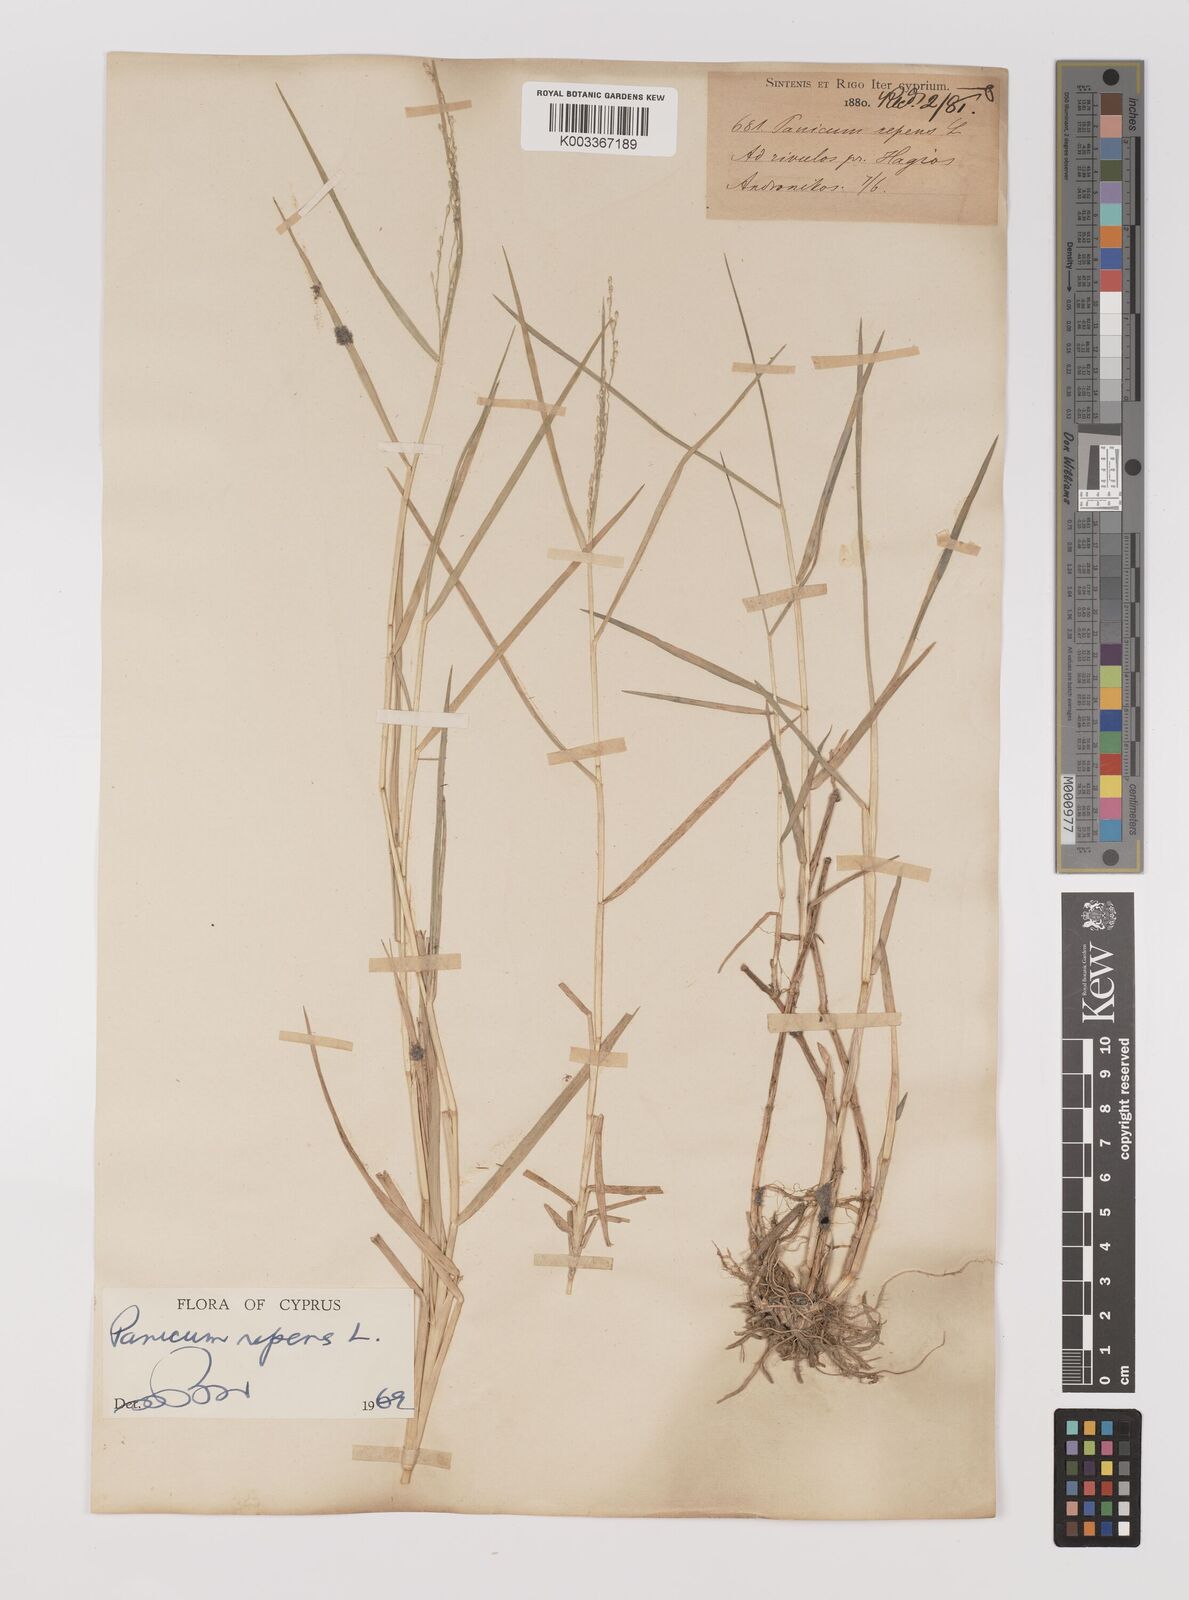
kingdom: Plantae
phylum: Tracheophyta
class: Liliopsida
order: Poales
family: Poaceae
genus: Panicum
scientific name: Panicum repens
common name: Torpedo grass
